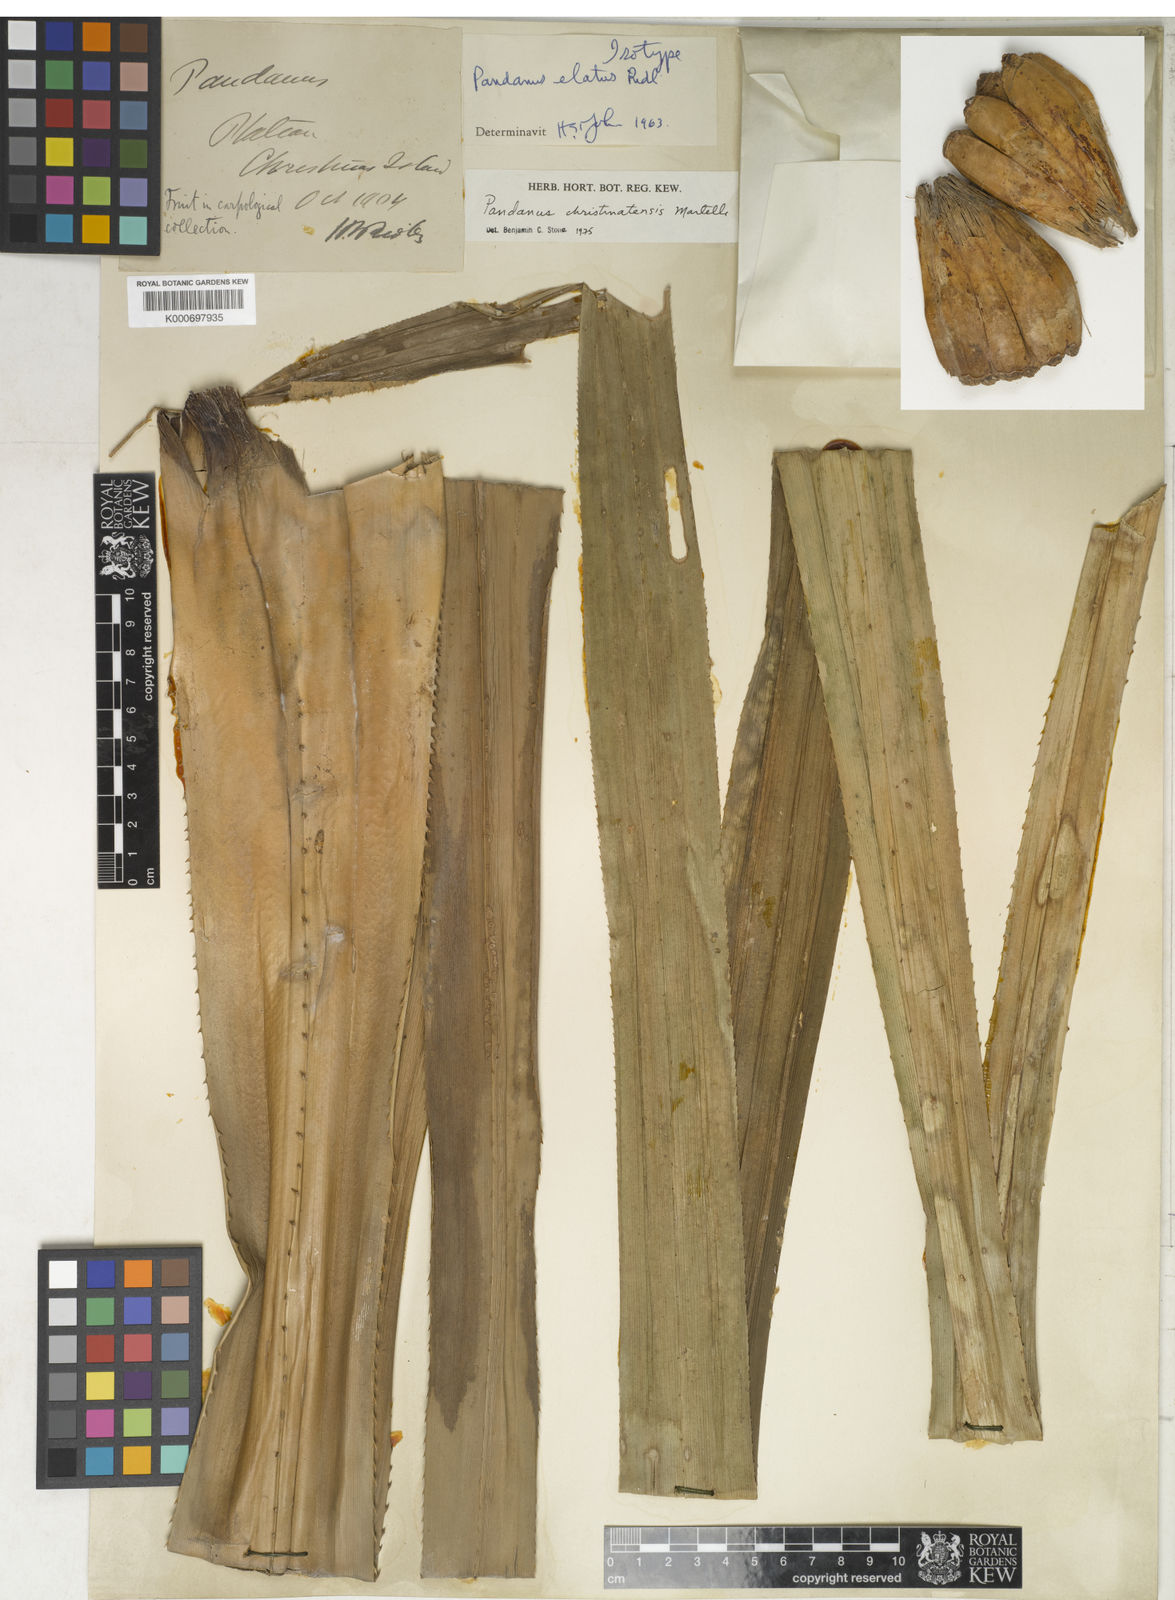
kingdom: Plantae
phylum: Tracheophyta
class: Liliopsida
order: Pandanales
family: Pandanaceae
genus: Pandanus
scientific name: Pandanus christmatensis
